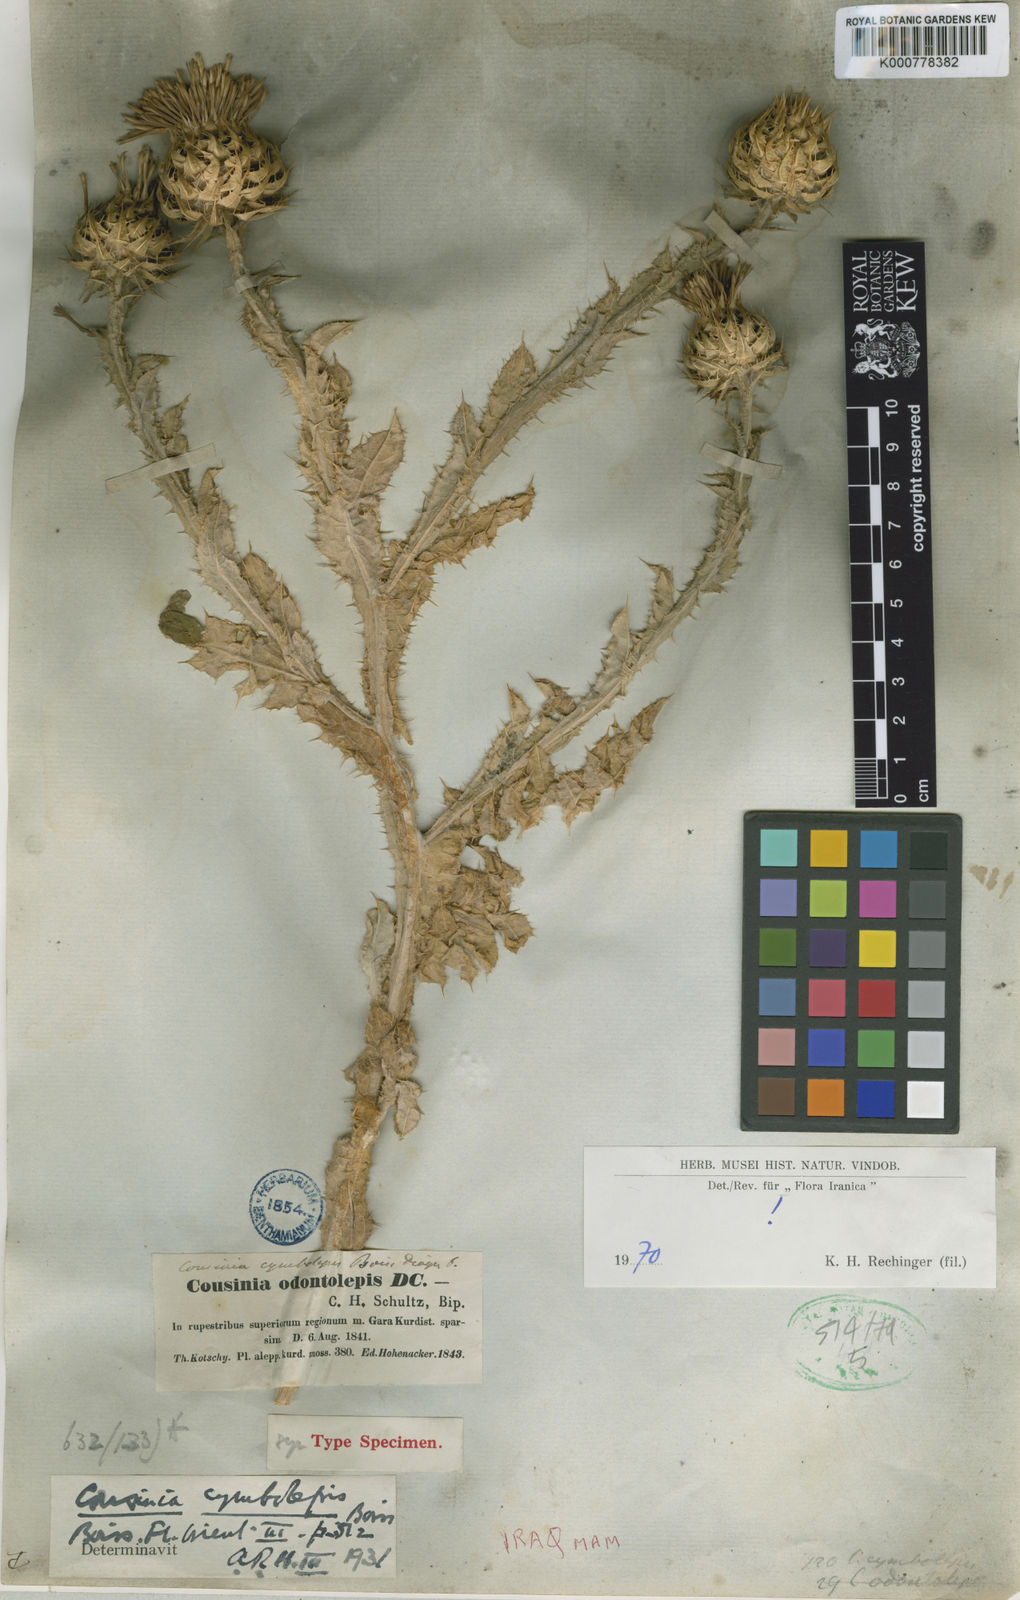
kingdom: Plantae
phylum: Tracheophyta
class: Magnoliopsida
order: Asterales
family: Asteraceae
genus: Cousinia
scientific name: Cousinia odontolepis
